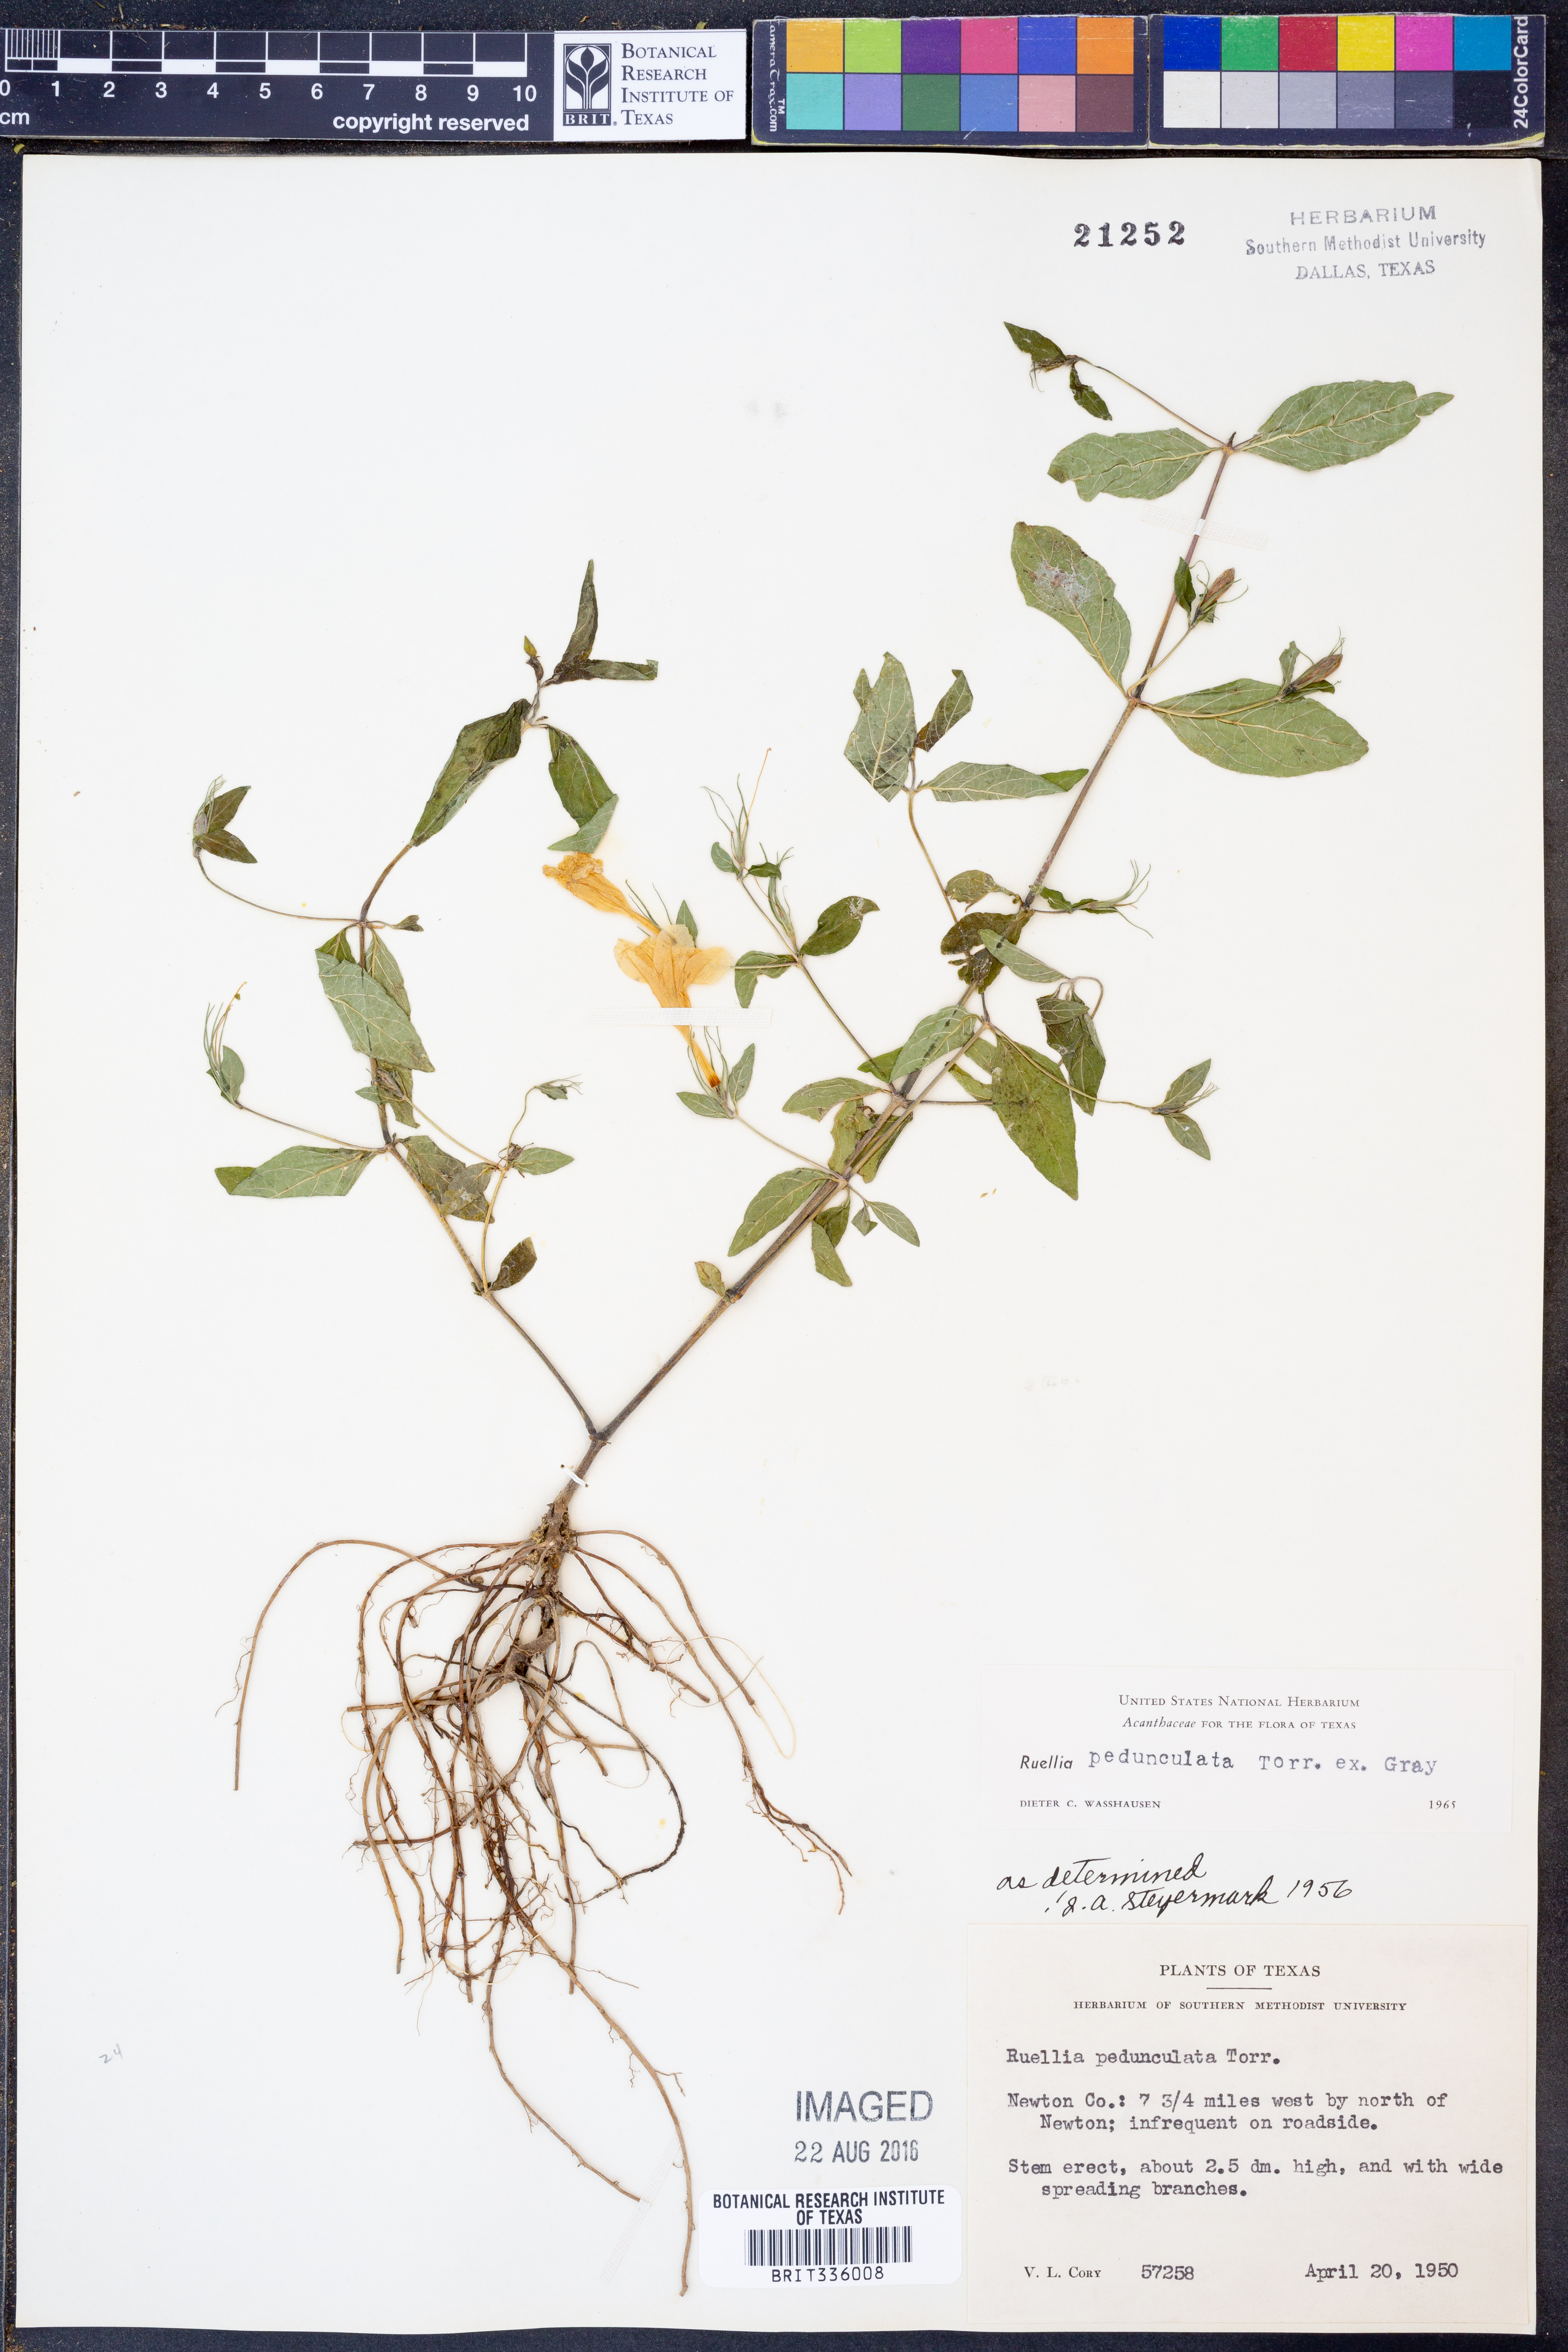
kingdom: Plantae
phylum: Tracheophyta
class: Magnoliopsida
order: Lamiales
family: Acanthaceae
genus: Ruellia
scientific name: Ruellia pedunculata
